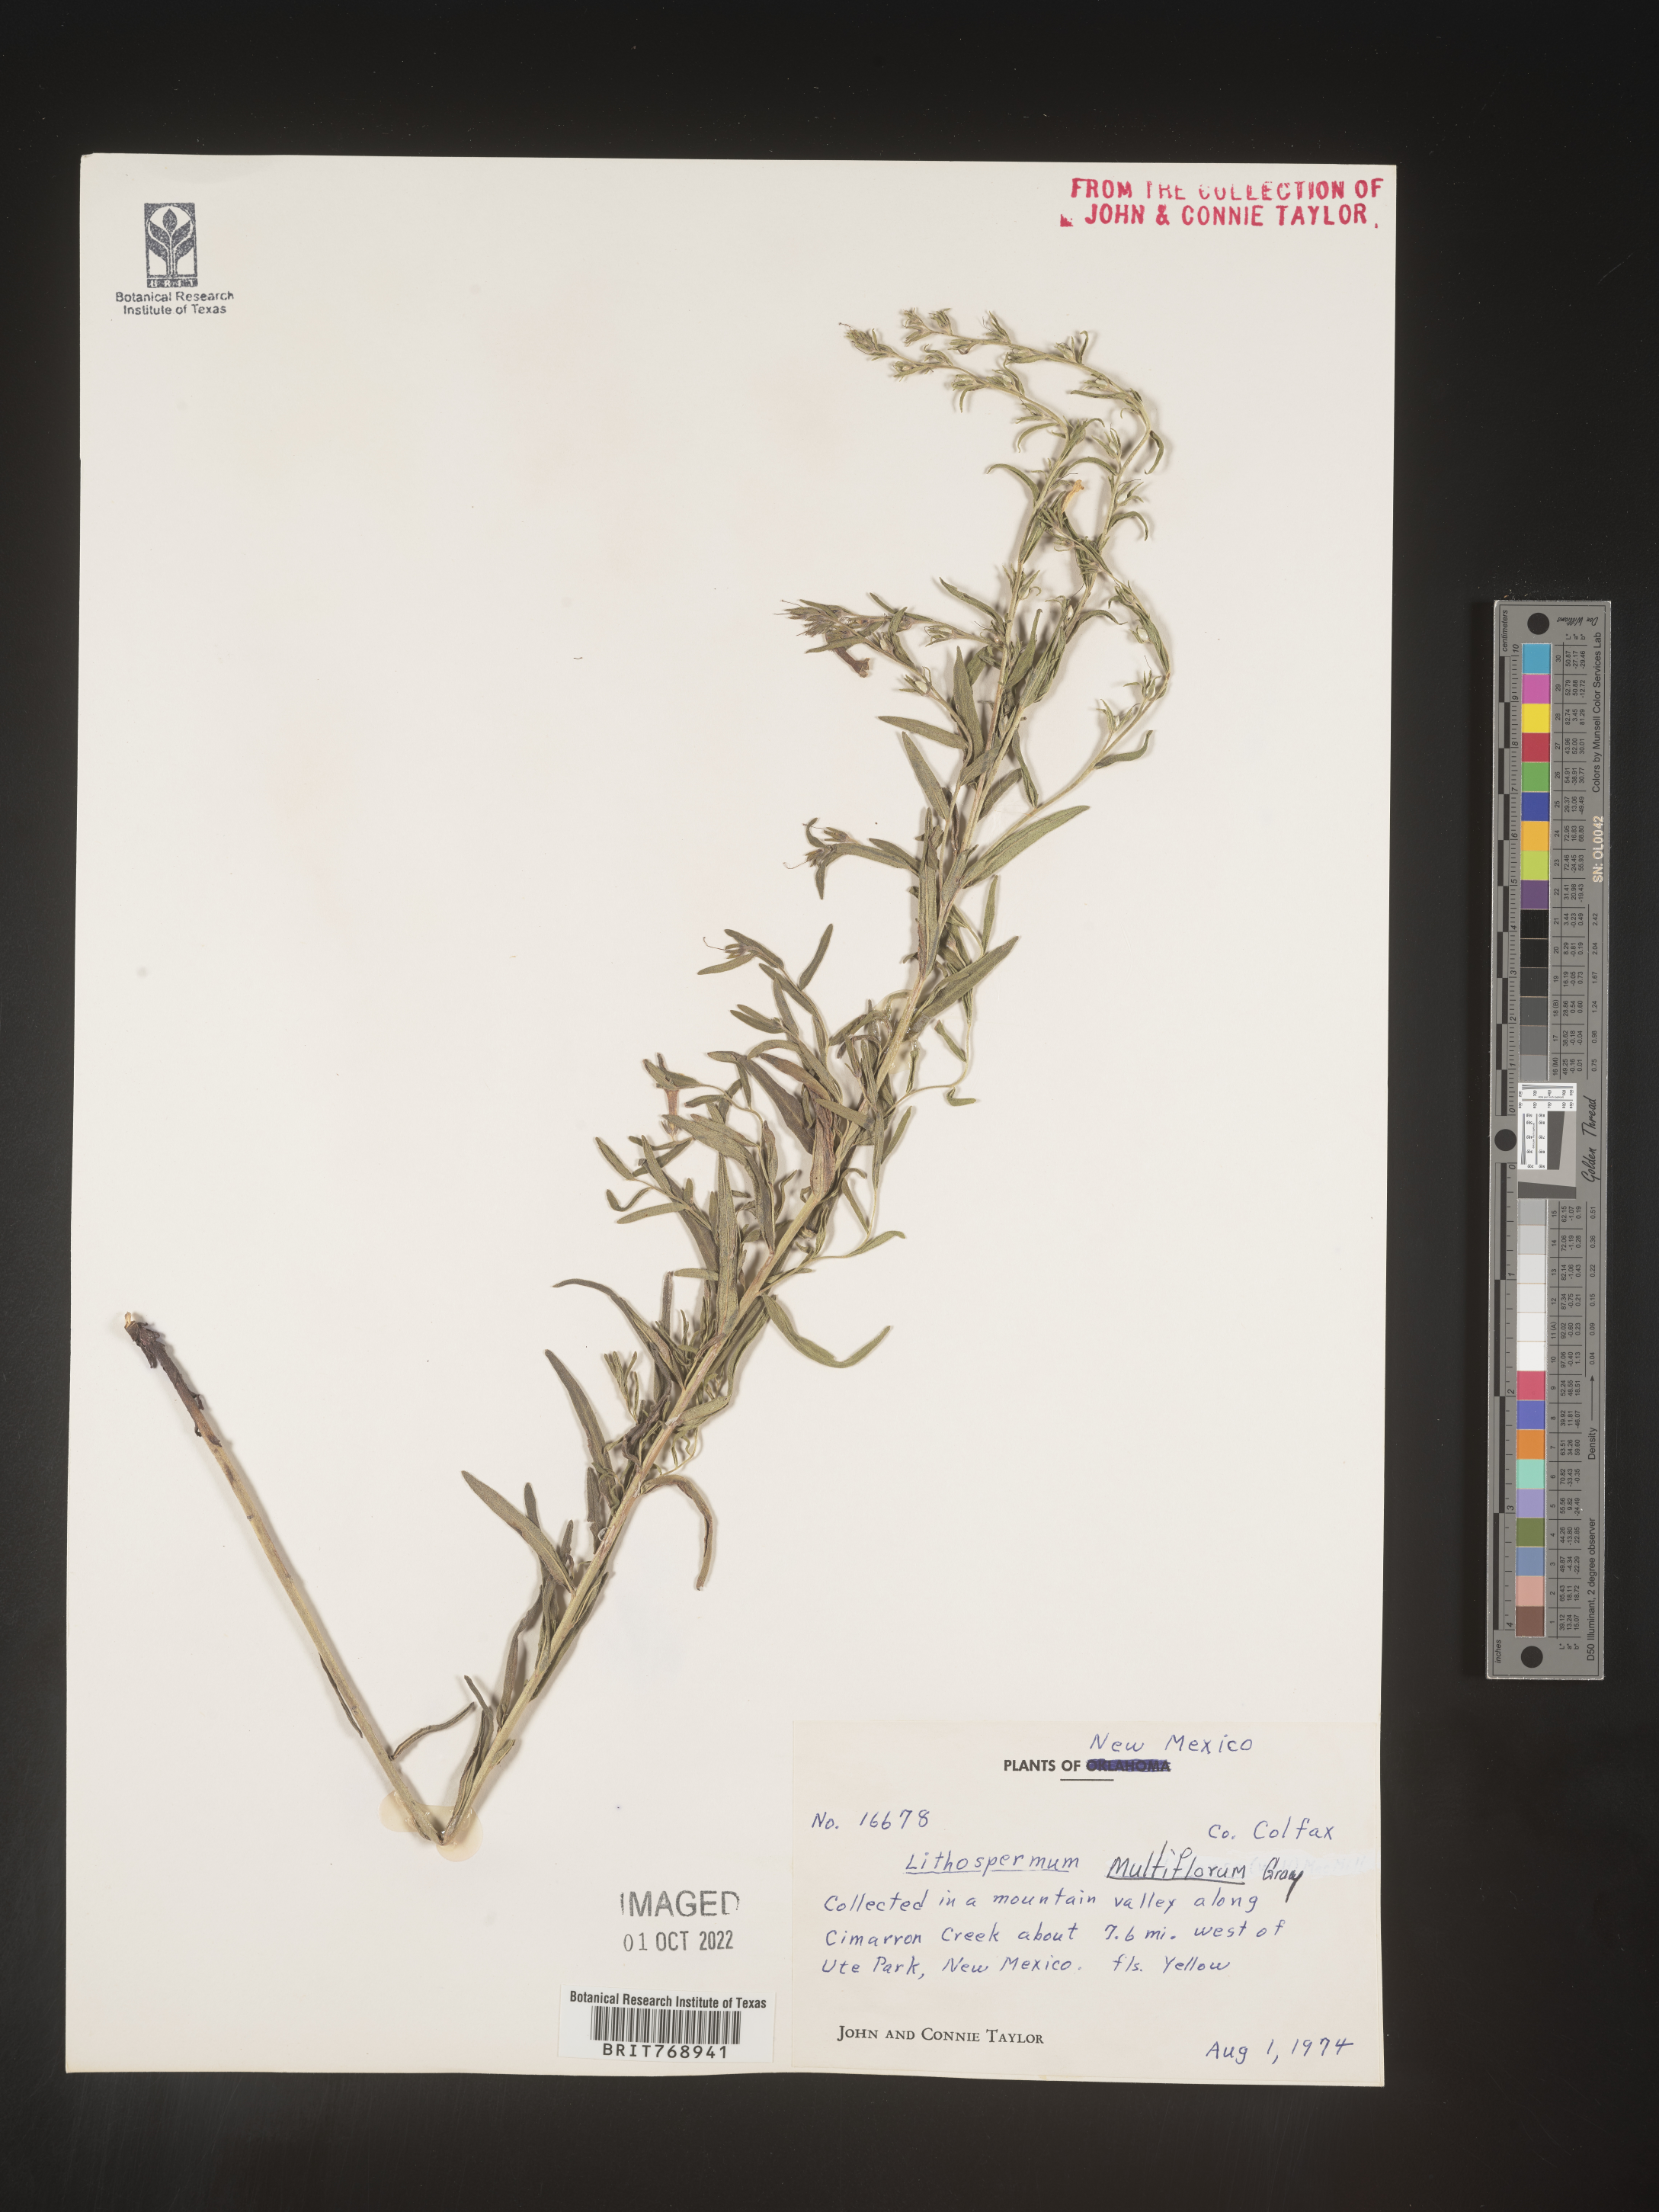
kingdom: Plantae
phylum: Tracheophyta
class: Magnoliopsida
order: Boraginales
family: Boraginaceae
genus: Lithospermum
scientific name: Lithospermum multiflorum
